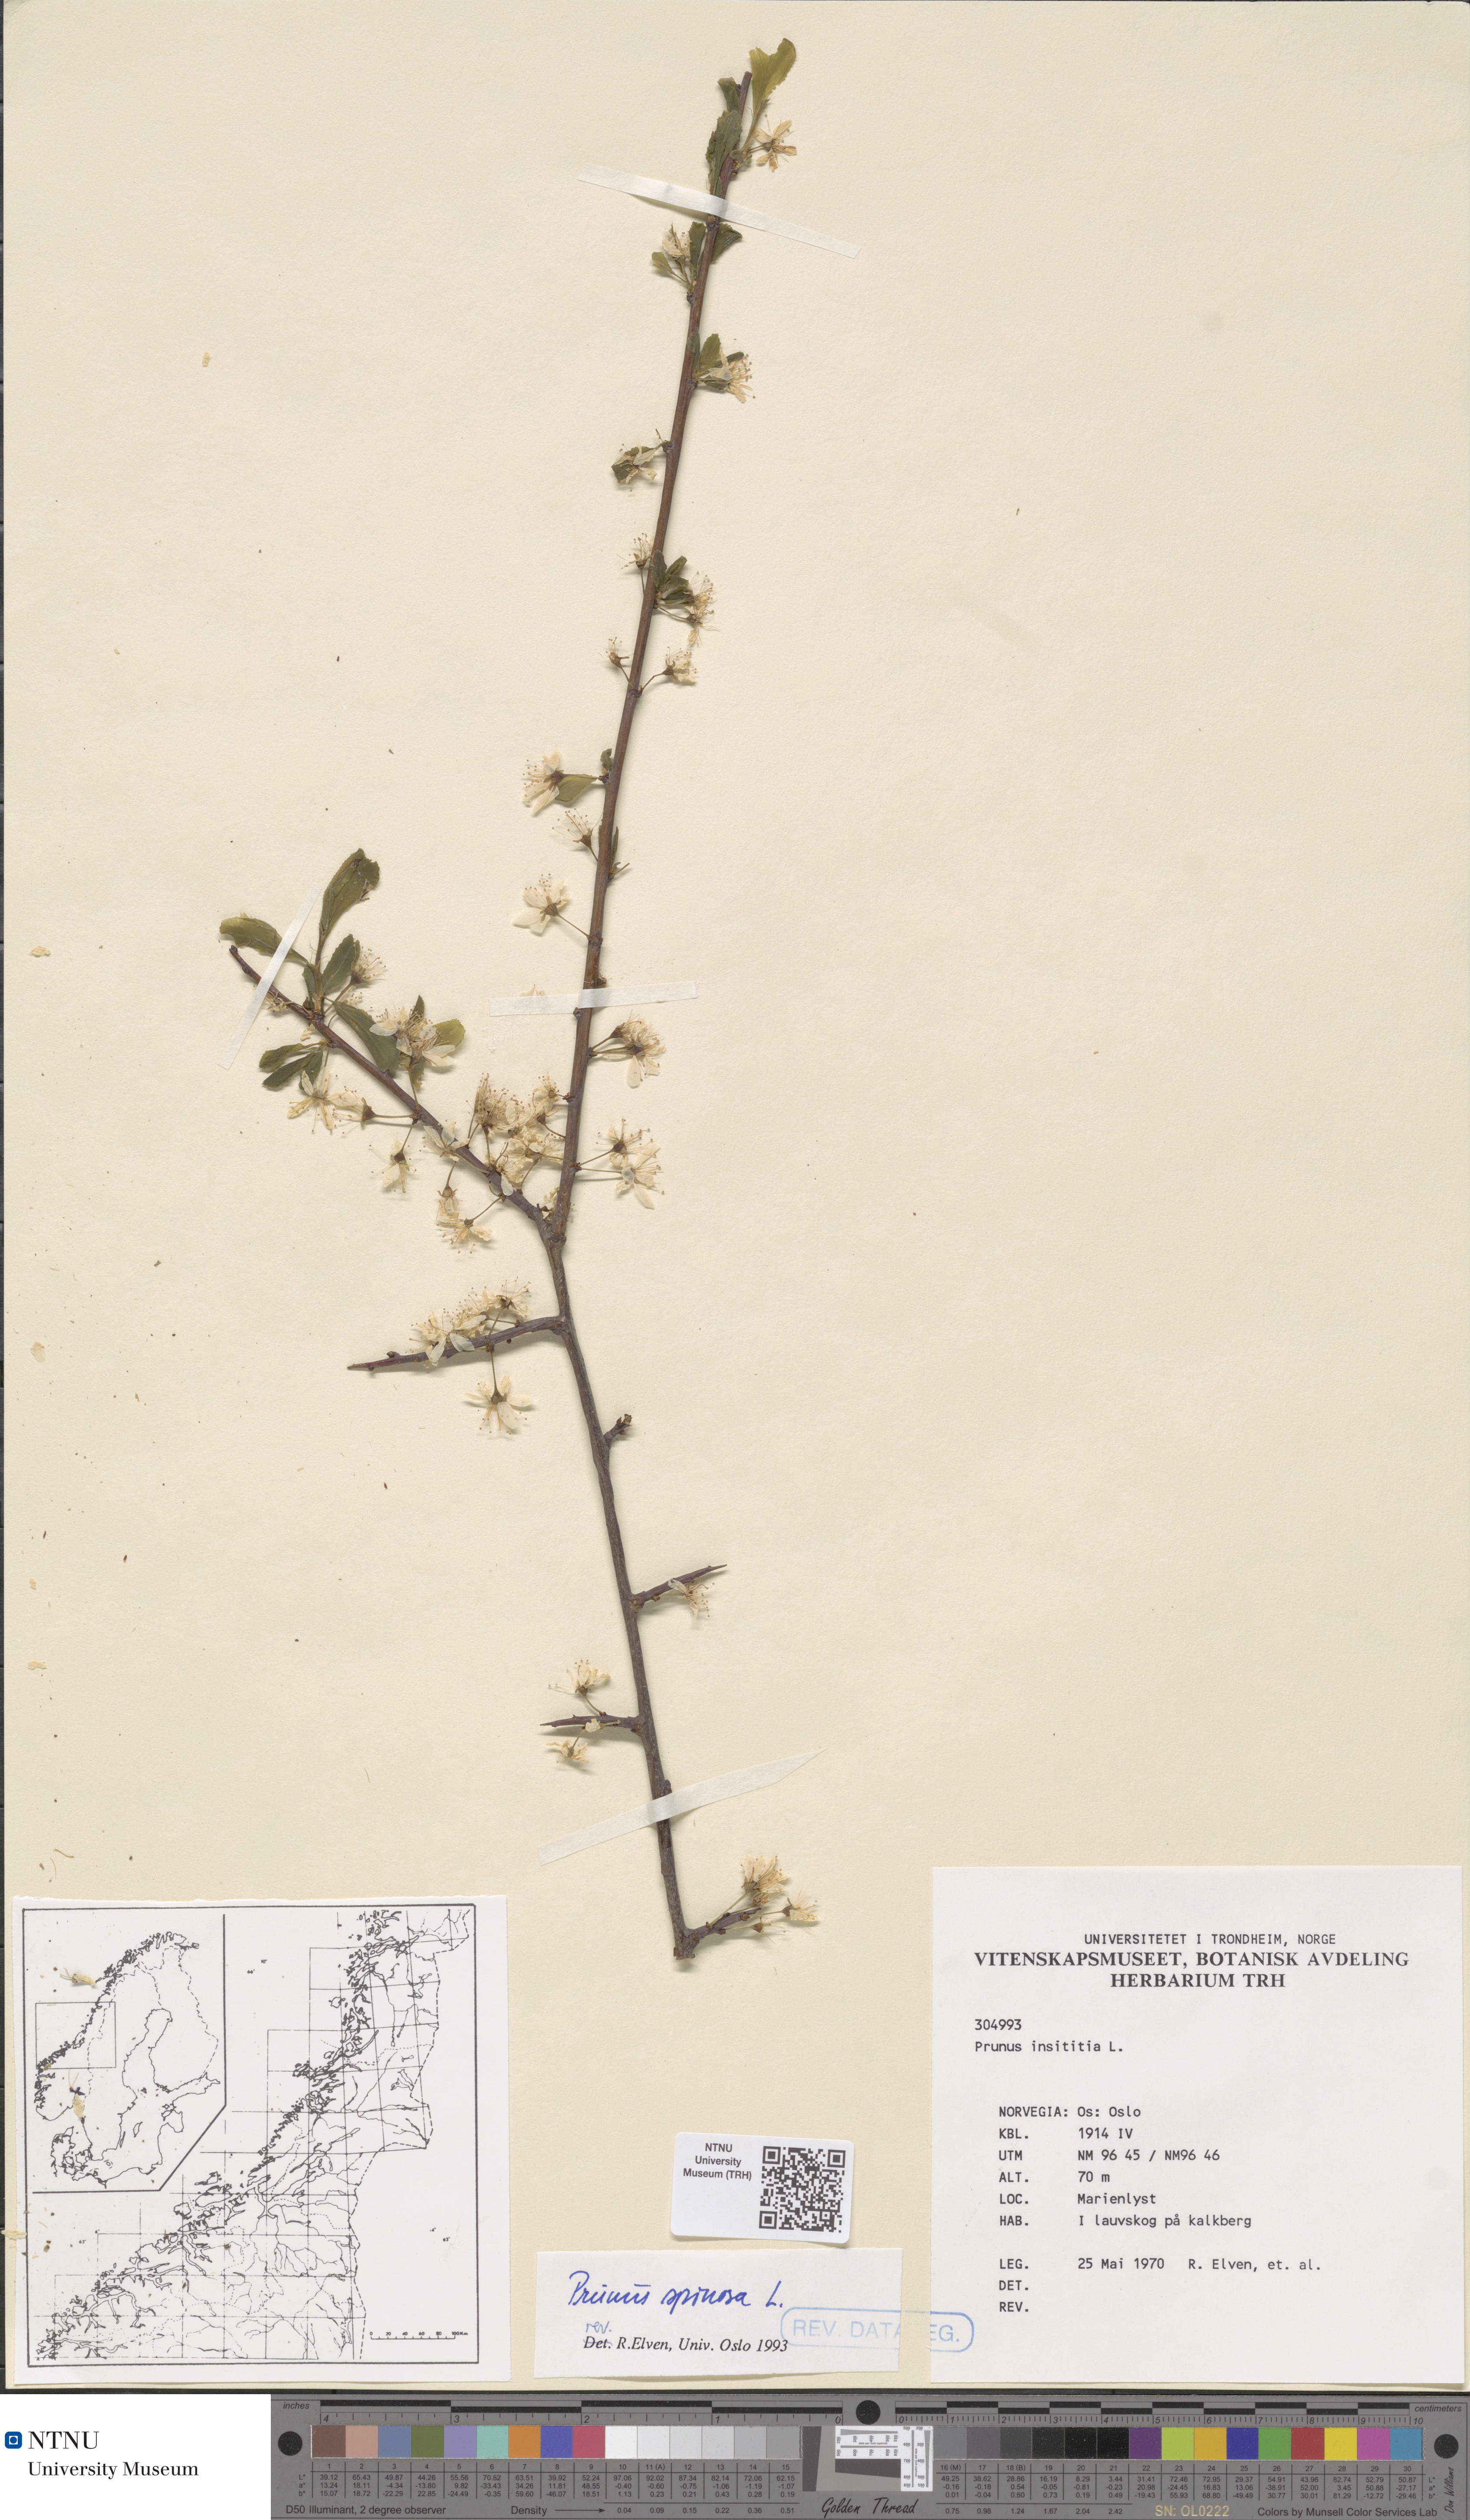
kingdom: Plantae
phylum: Tracheophyta
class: Magnoliopsida
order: Rosales
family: Rosaceae
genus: Prunus
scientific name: Prunus spinosa
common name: Blackthorn
